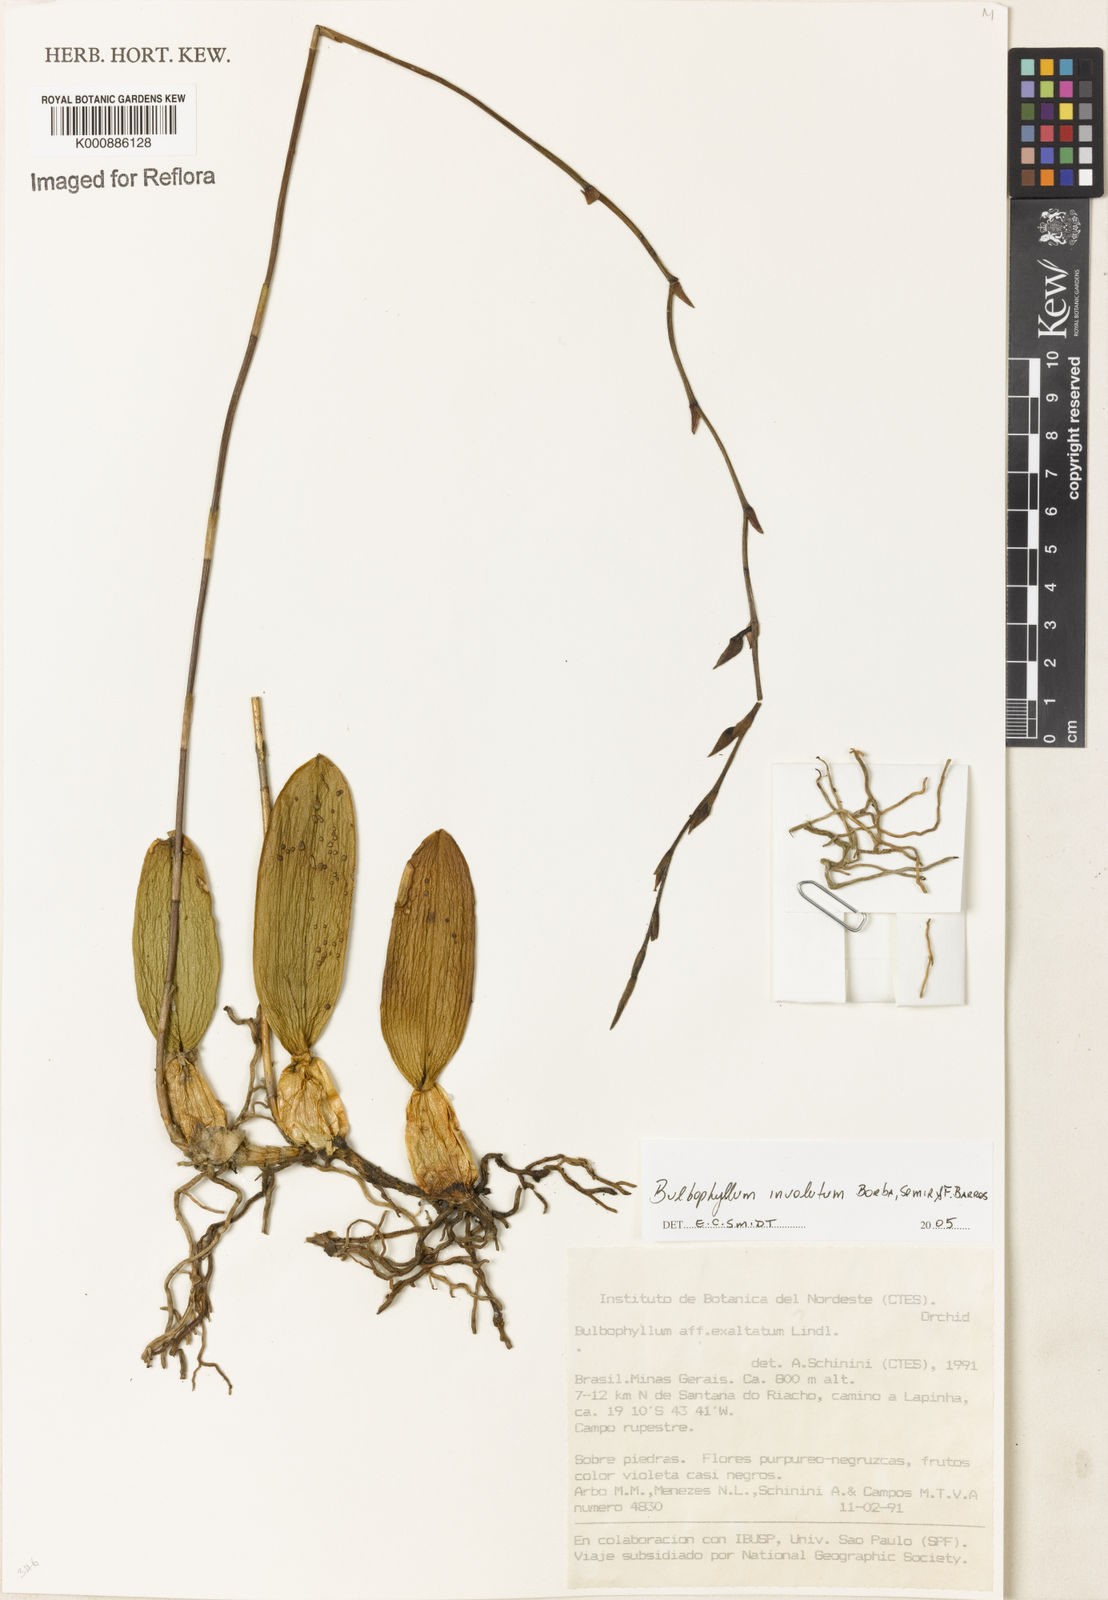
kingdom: Plantae
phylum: Tracheophyta
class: Liliopsida
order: Asparagales
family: Orchidaceae
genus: Bulbophyllum
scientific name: Bulbophyllum involutum
